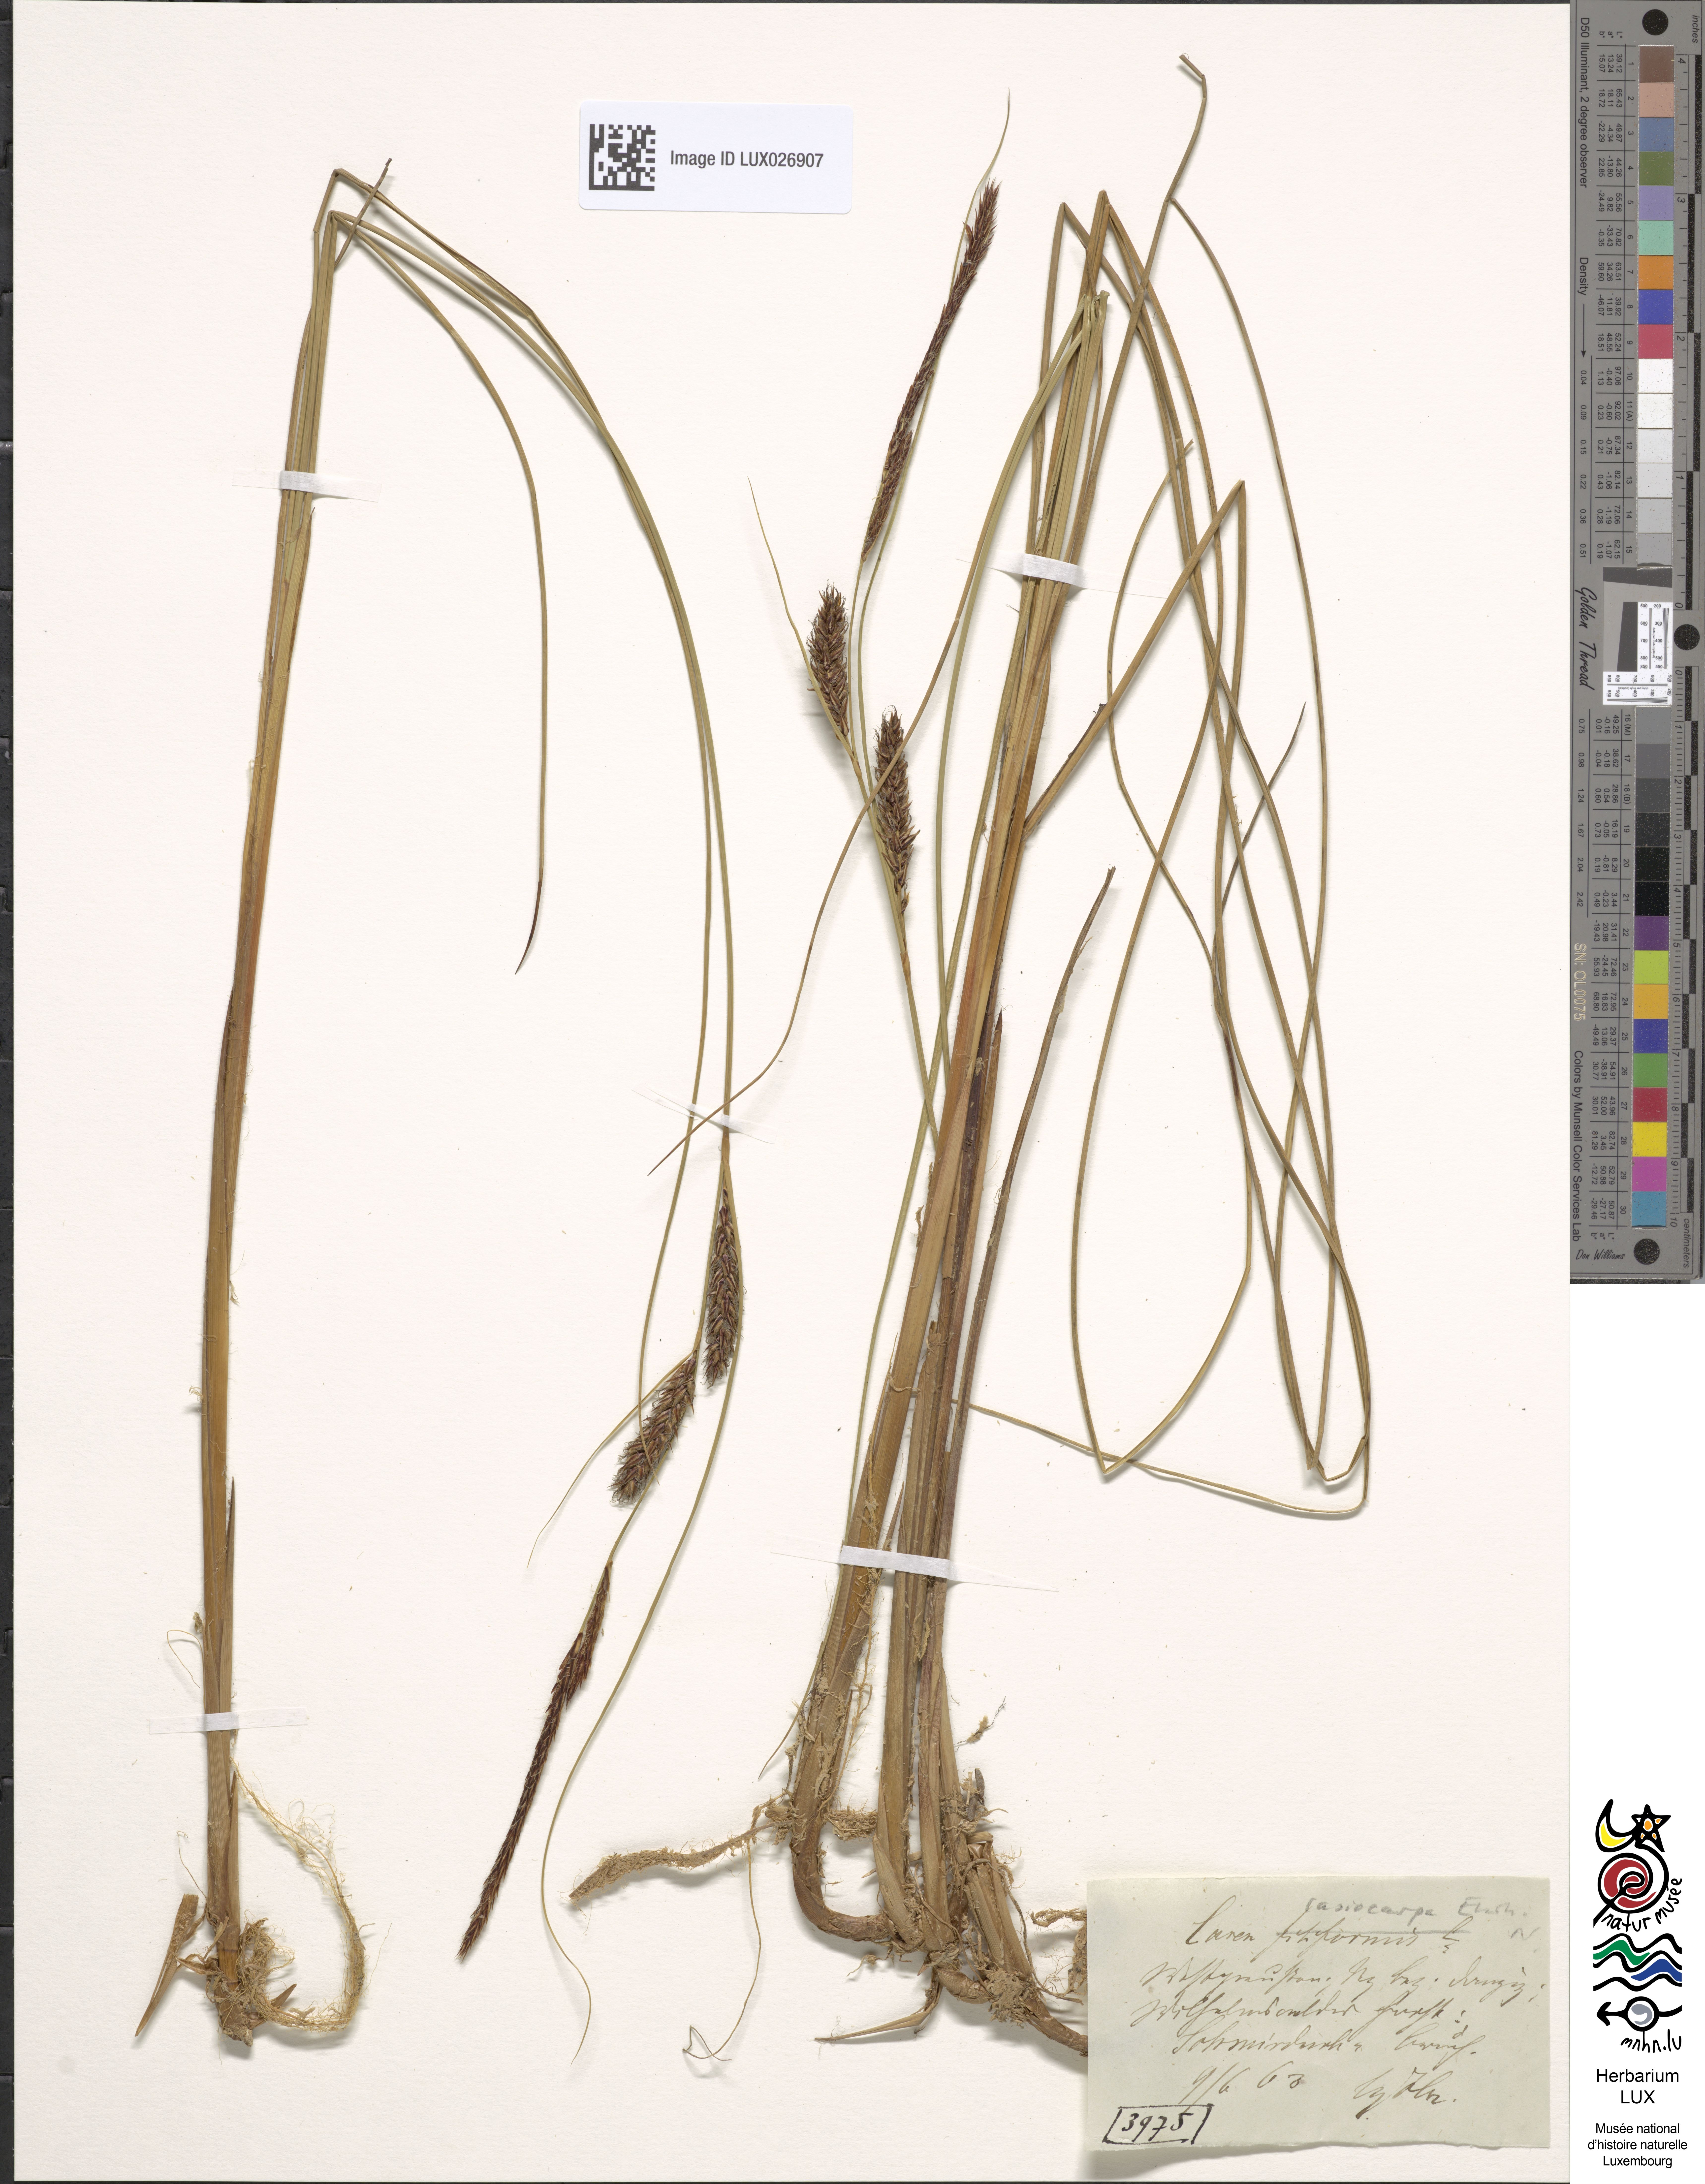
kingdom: Plantae
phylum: Tracheophyta
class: Liliopsida
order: Poales
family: Cyperaceae
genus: Carex
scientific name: Carex lasiocarpa
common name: Slender sedge
